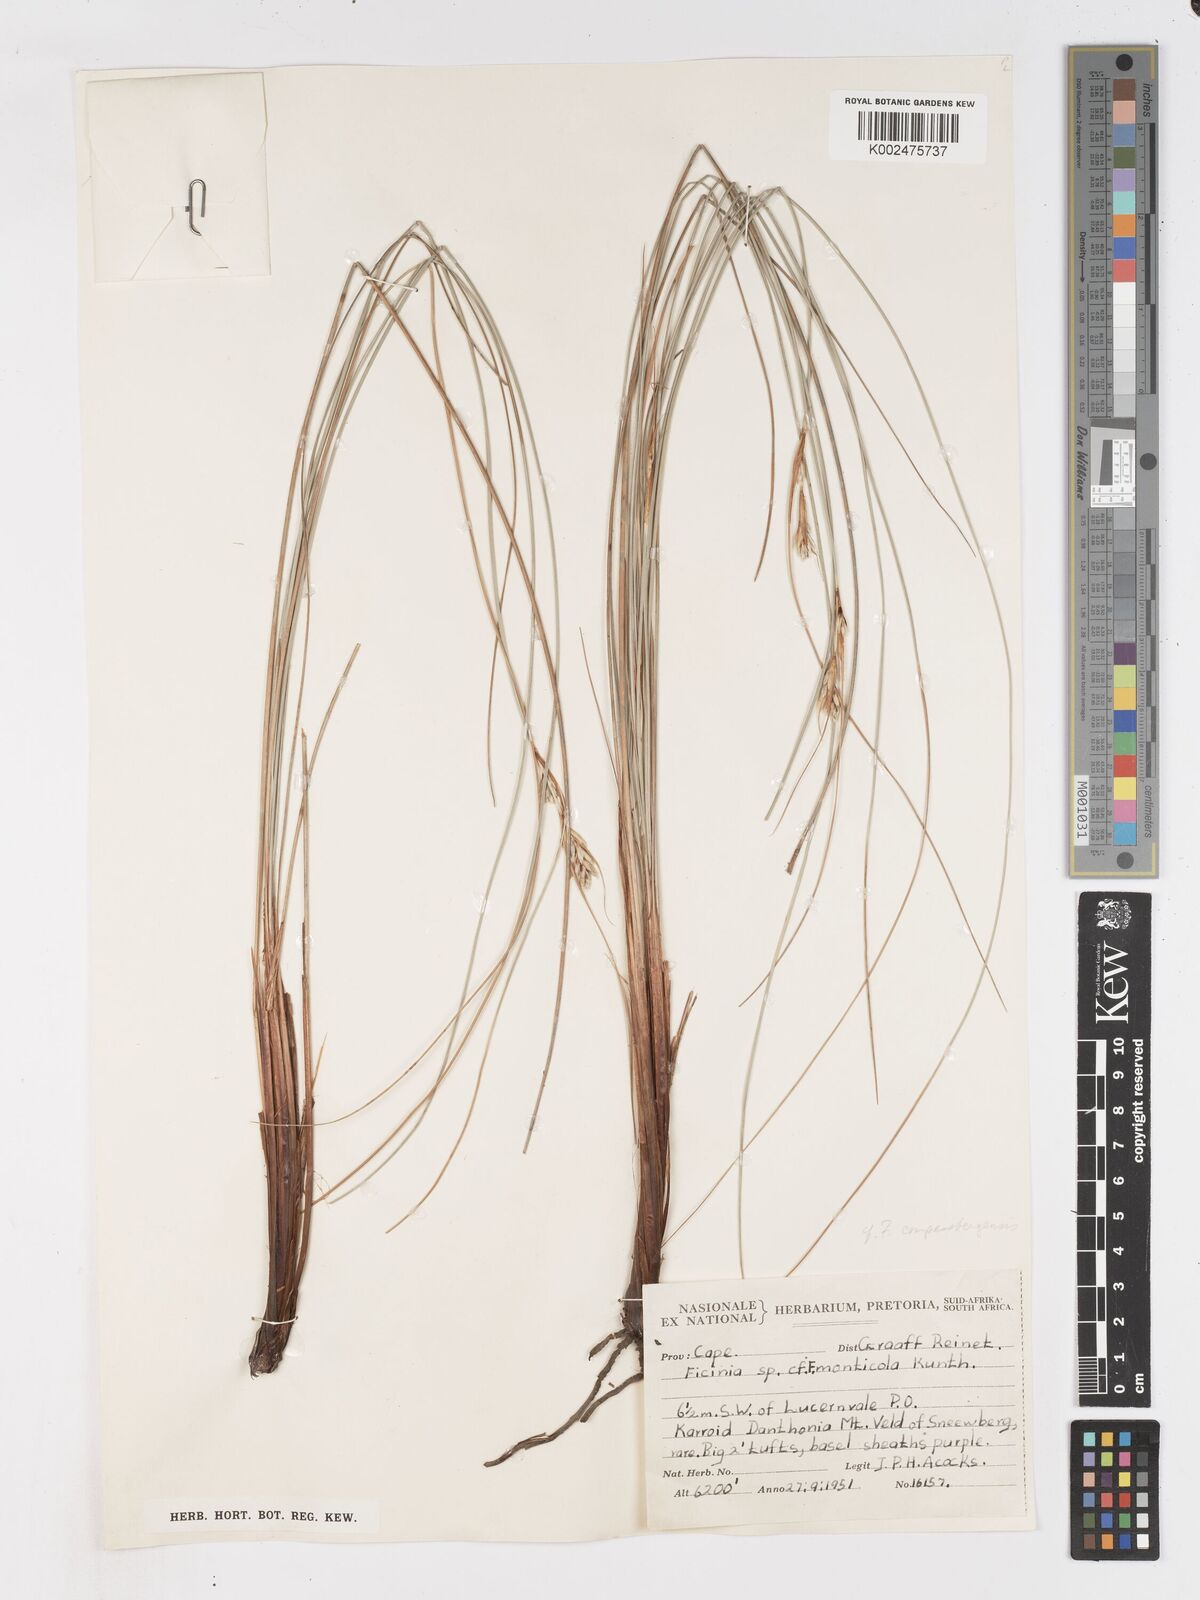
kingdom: Plantae
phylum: Tracheophyta
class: Liliopsida
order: Poales
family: Cyperaceae
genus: Ficinia
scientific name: Ficinia compasbergensis
